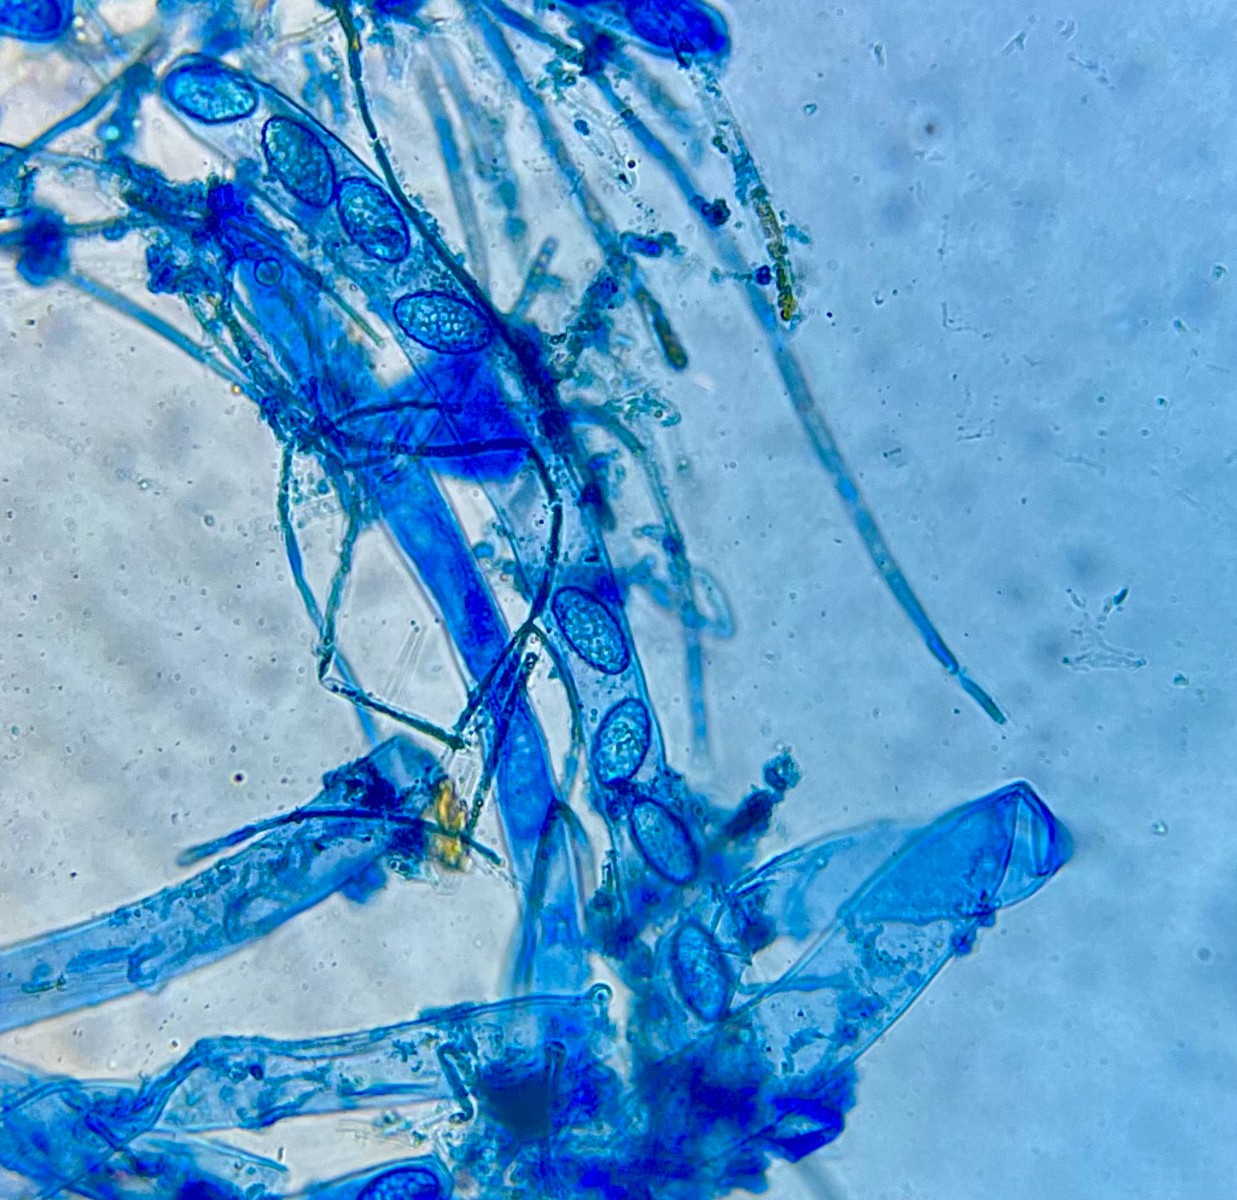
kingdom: Fungi
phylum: Ascomycota
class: Pezizomycetes
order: Pezizales
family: Pyronemataceae
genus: Neottiella
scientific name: Neottiella albocincta
